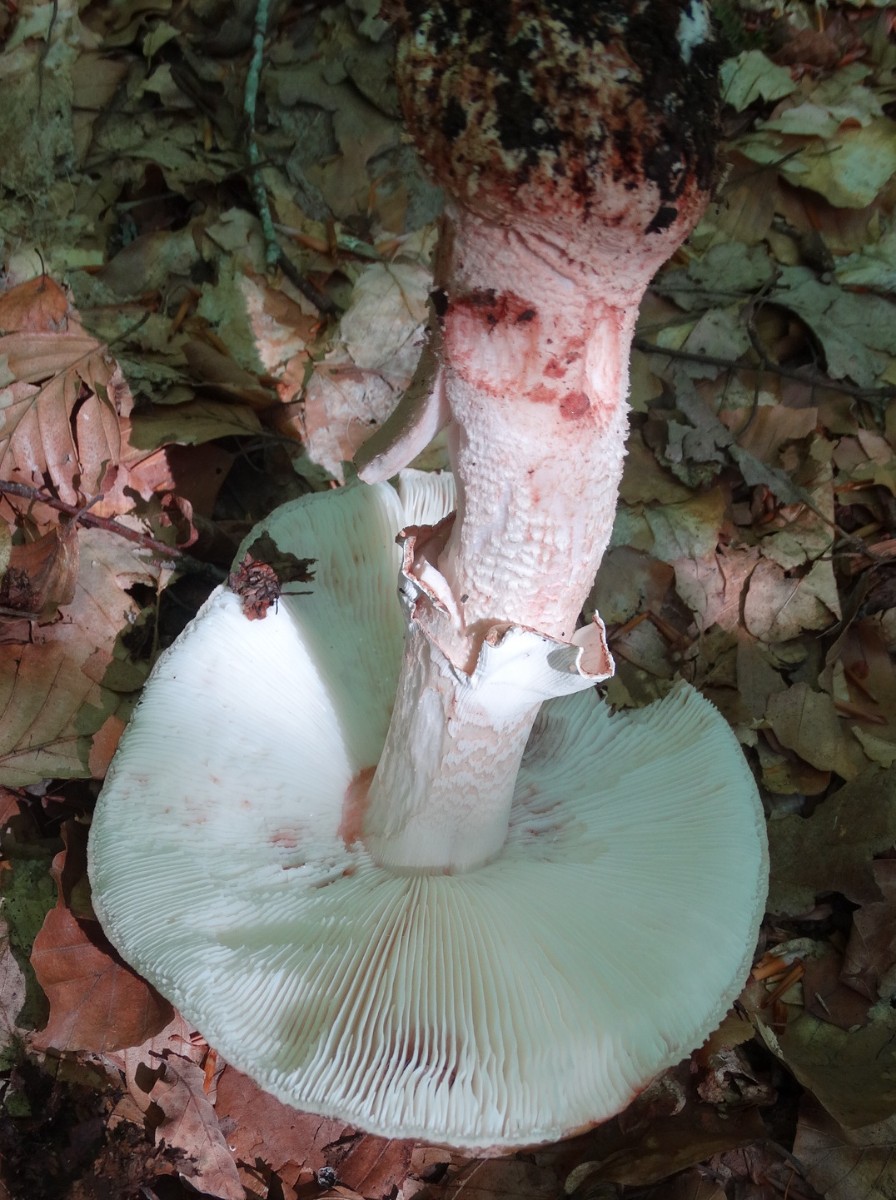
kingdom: Fungi
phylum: Basidiomycota
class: Agaricomycetes
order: Agaricales
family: Amanitaceae
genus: Amanita
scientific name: Amanita rubescens
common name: rødmende fluesvamp
